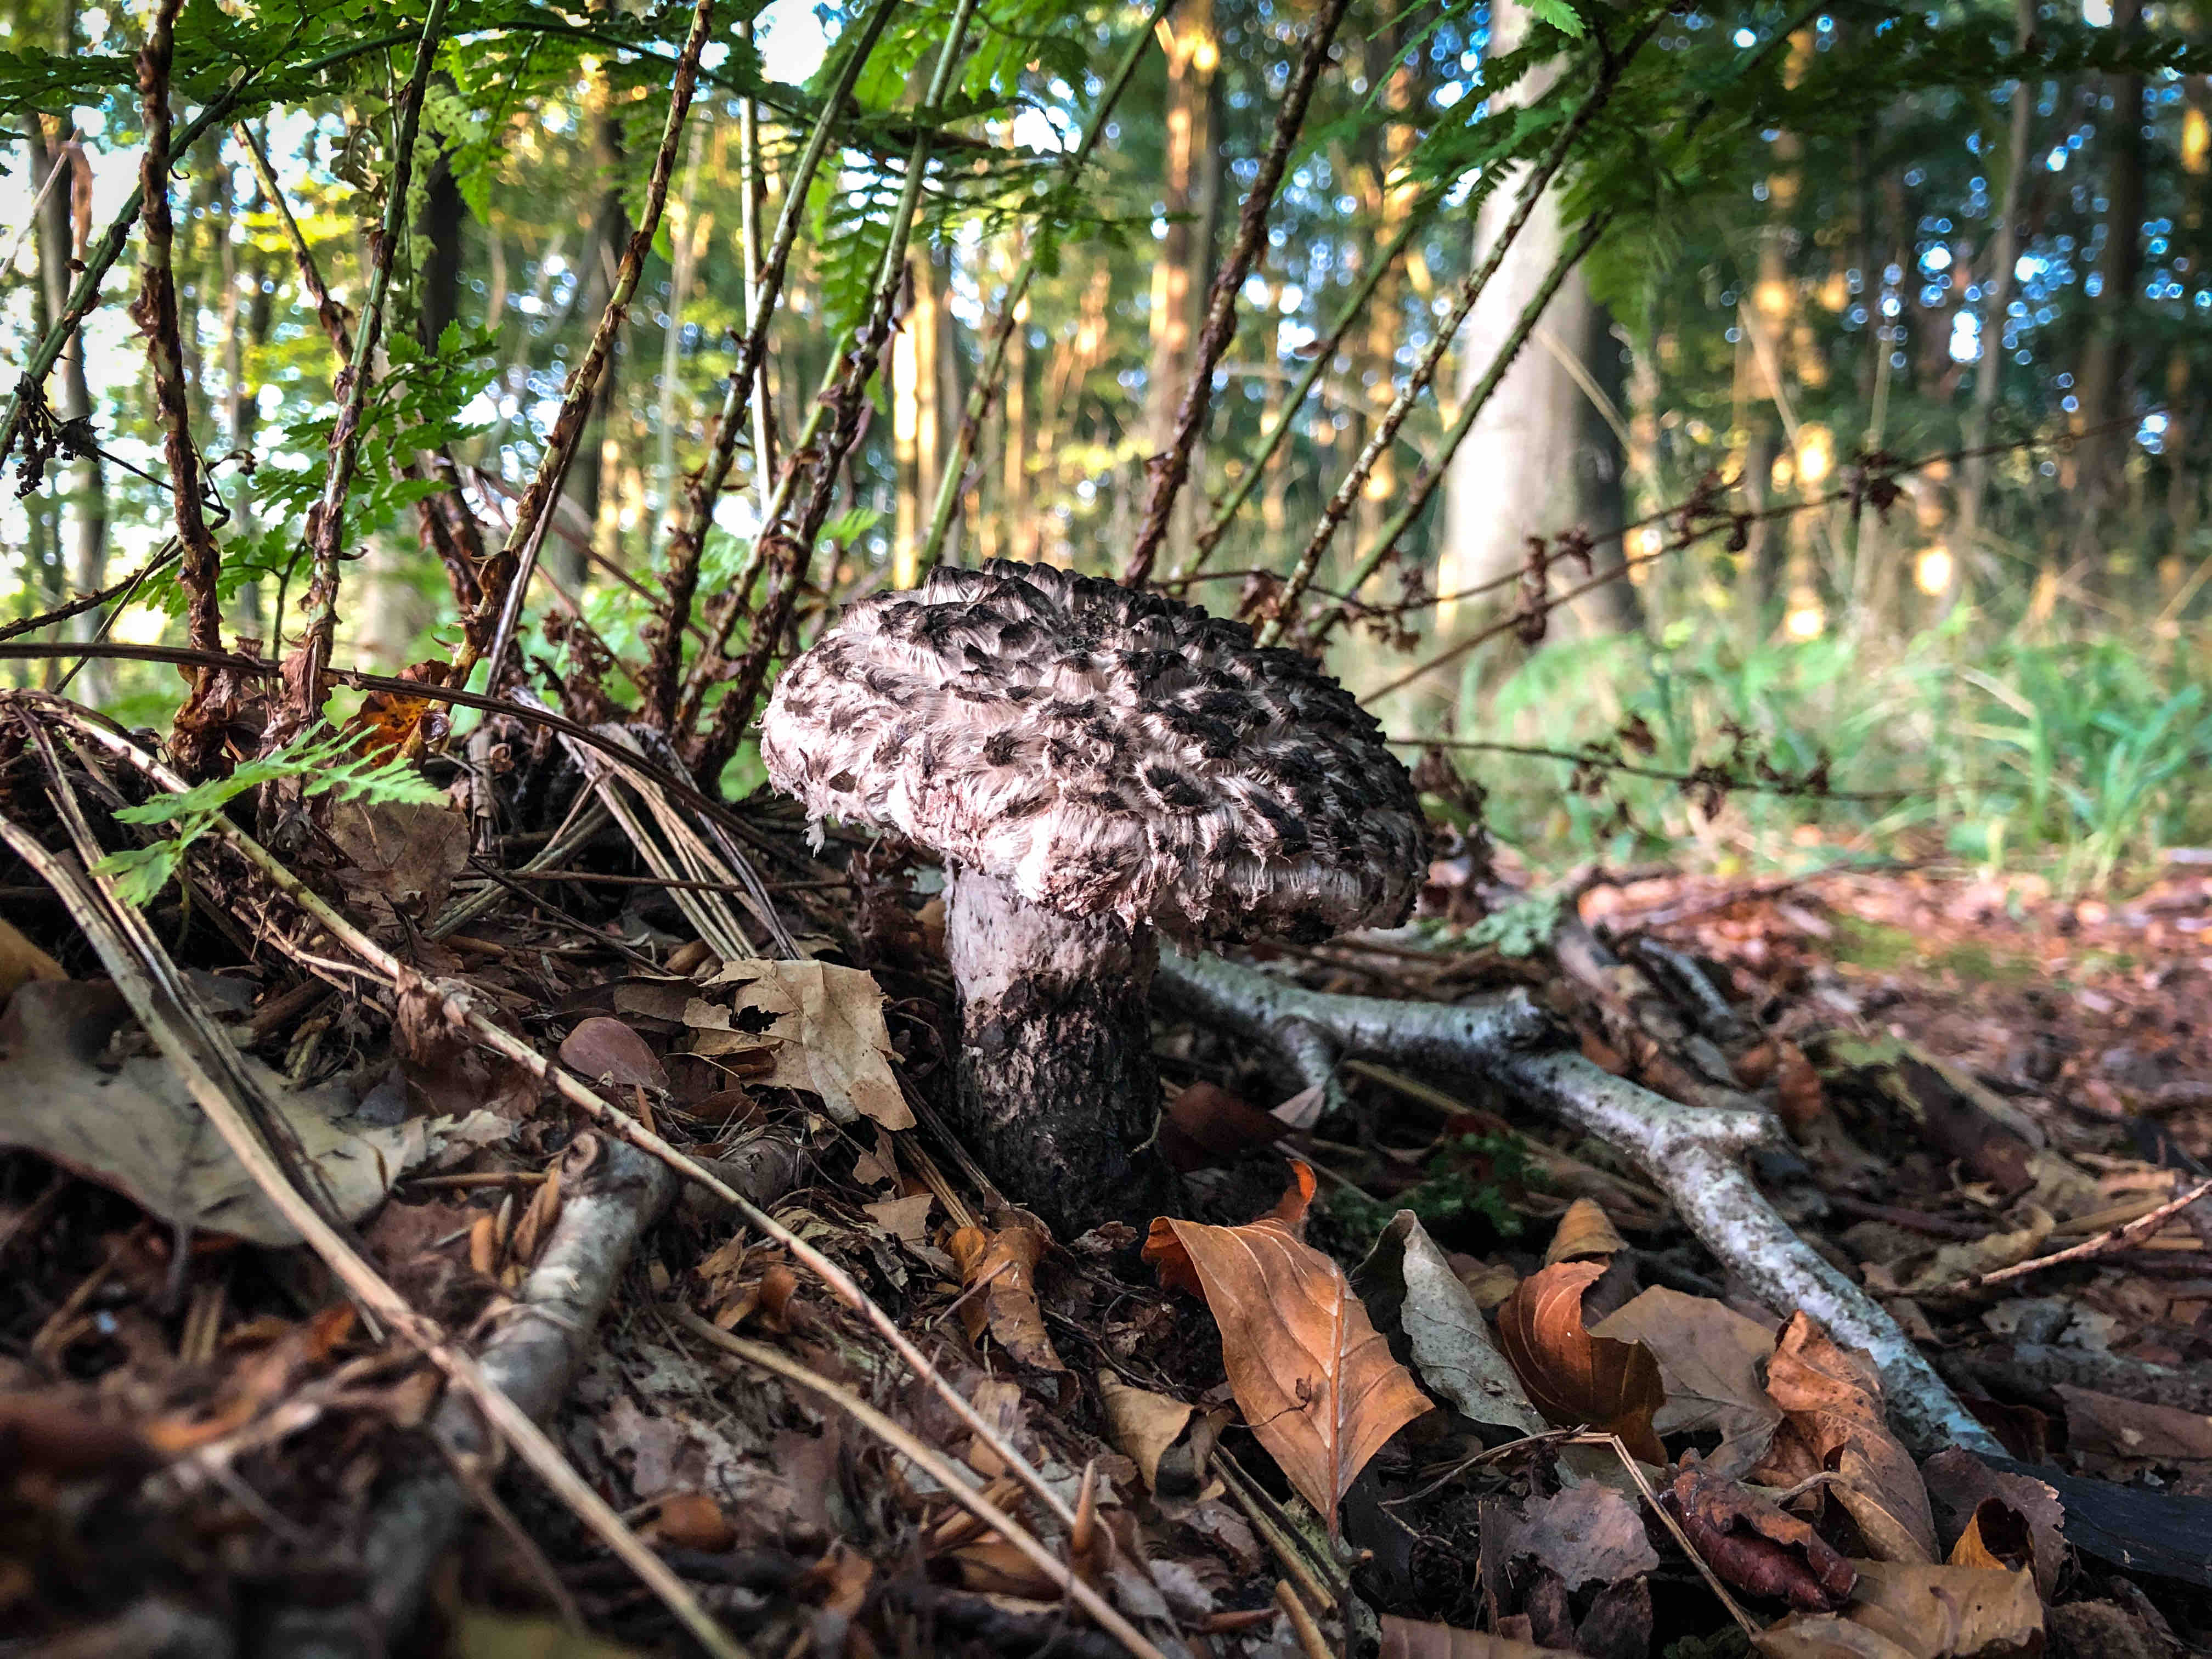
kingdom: Fungi
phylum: Basidiomycota
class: Agaricomycetes
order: Boletales
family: Boletaceae
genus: Strobilomyces
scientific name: Strobilomyces strobilaceus
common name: koglerørhat
